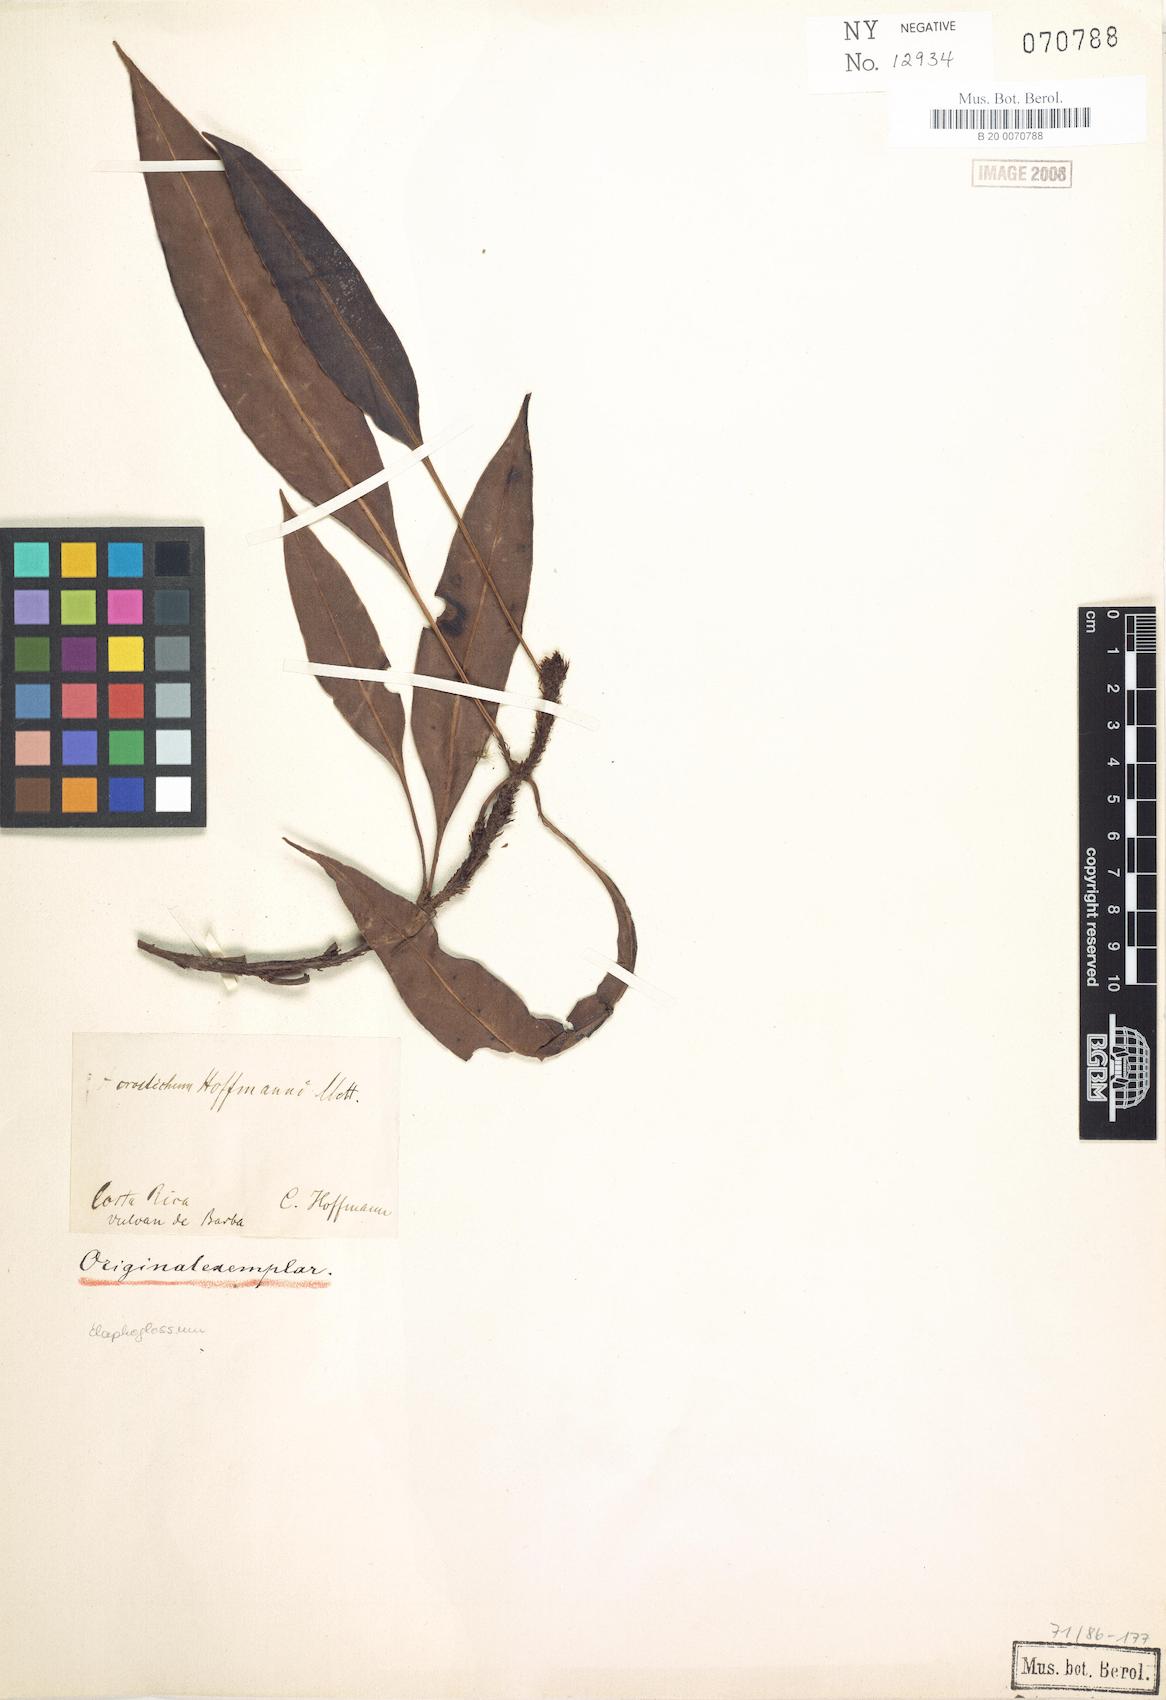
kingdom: Plantae
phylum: Tracheophyta
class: Polypodiopsida
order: Polypodiales
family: Dryopteridaceae
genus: Elaphoglossum
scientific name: Elaphoglossum hoffmannii
